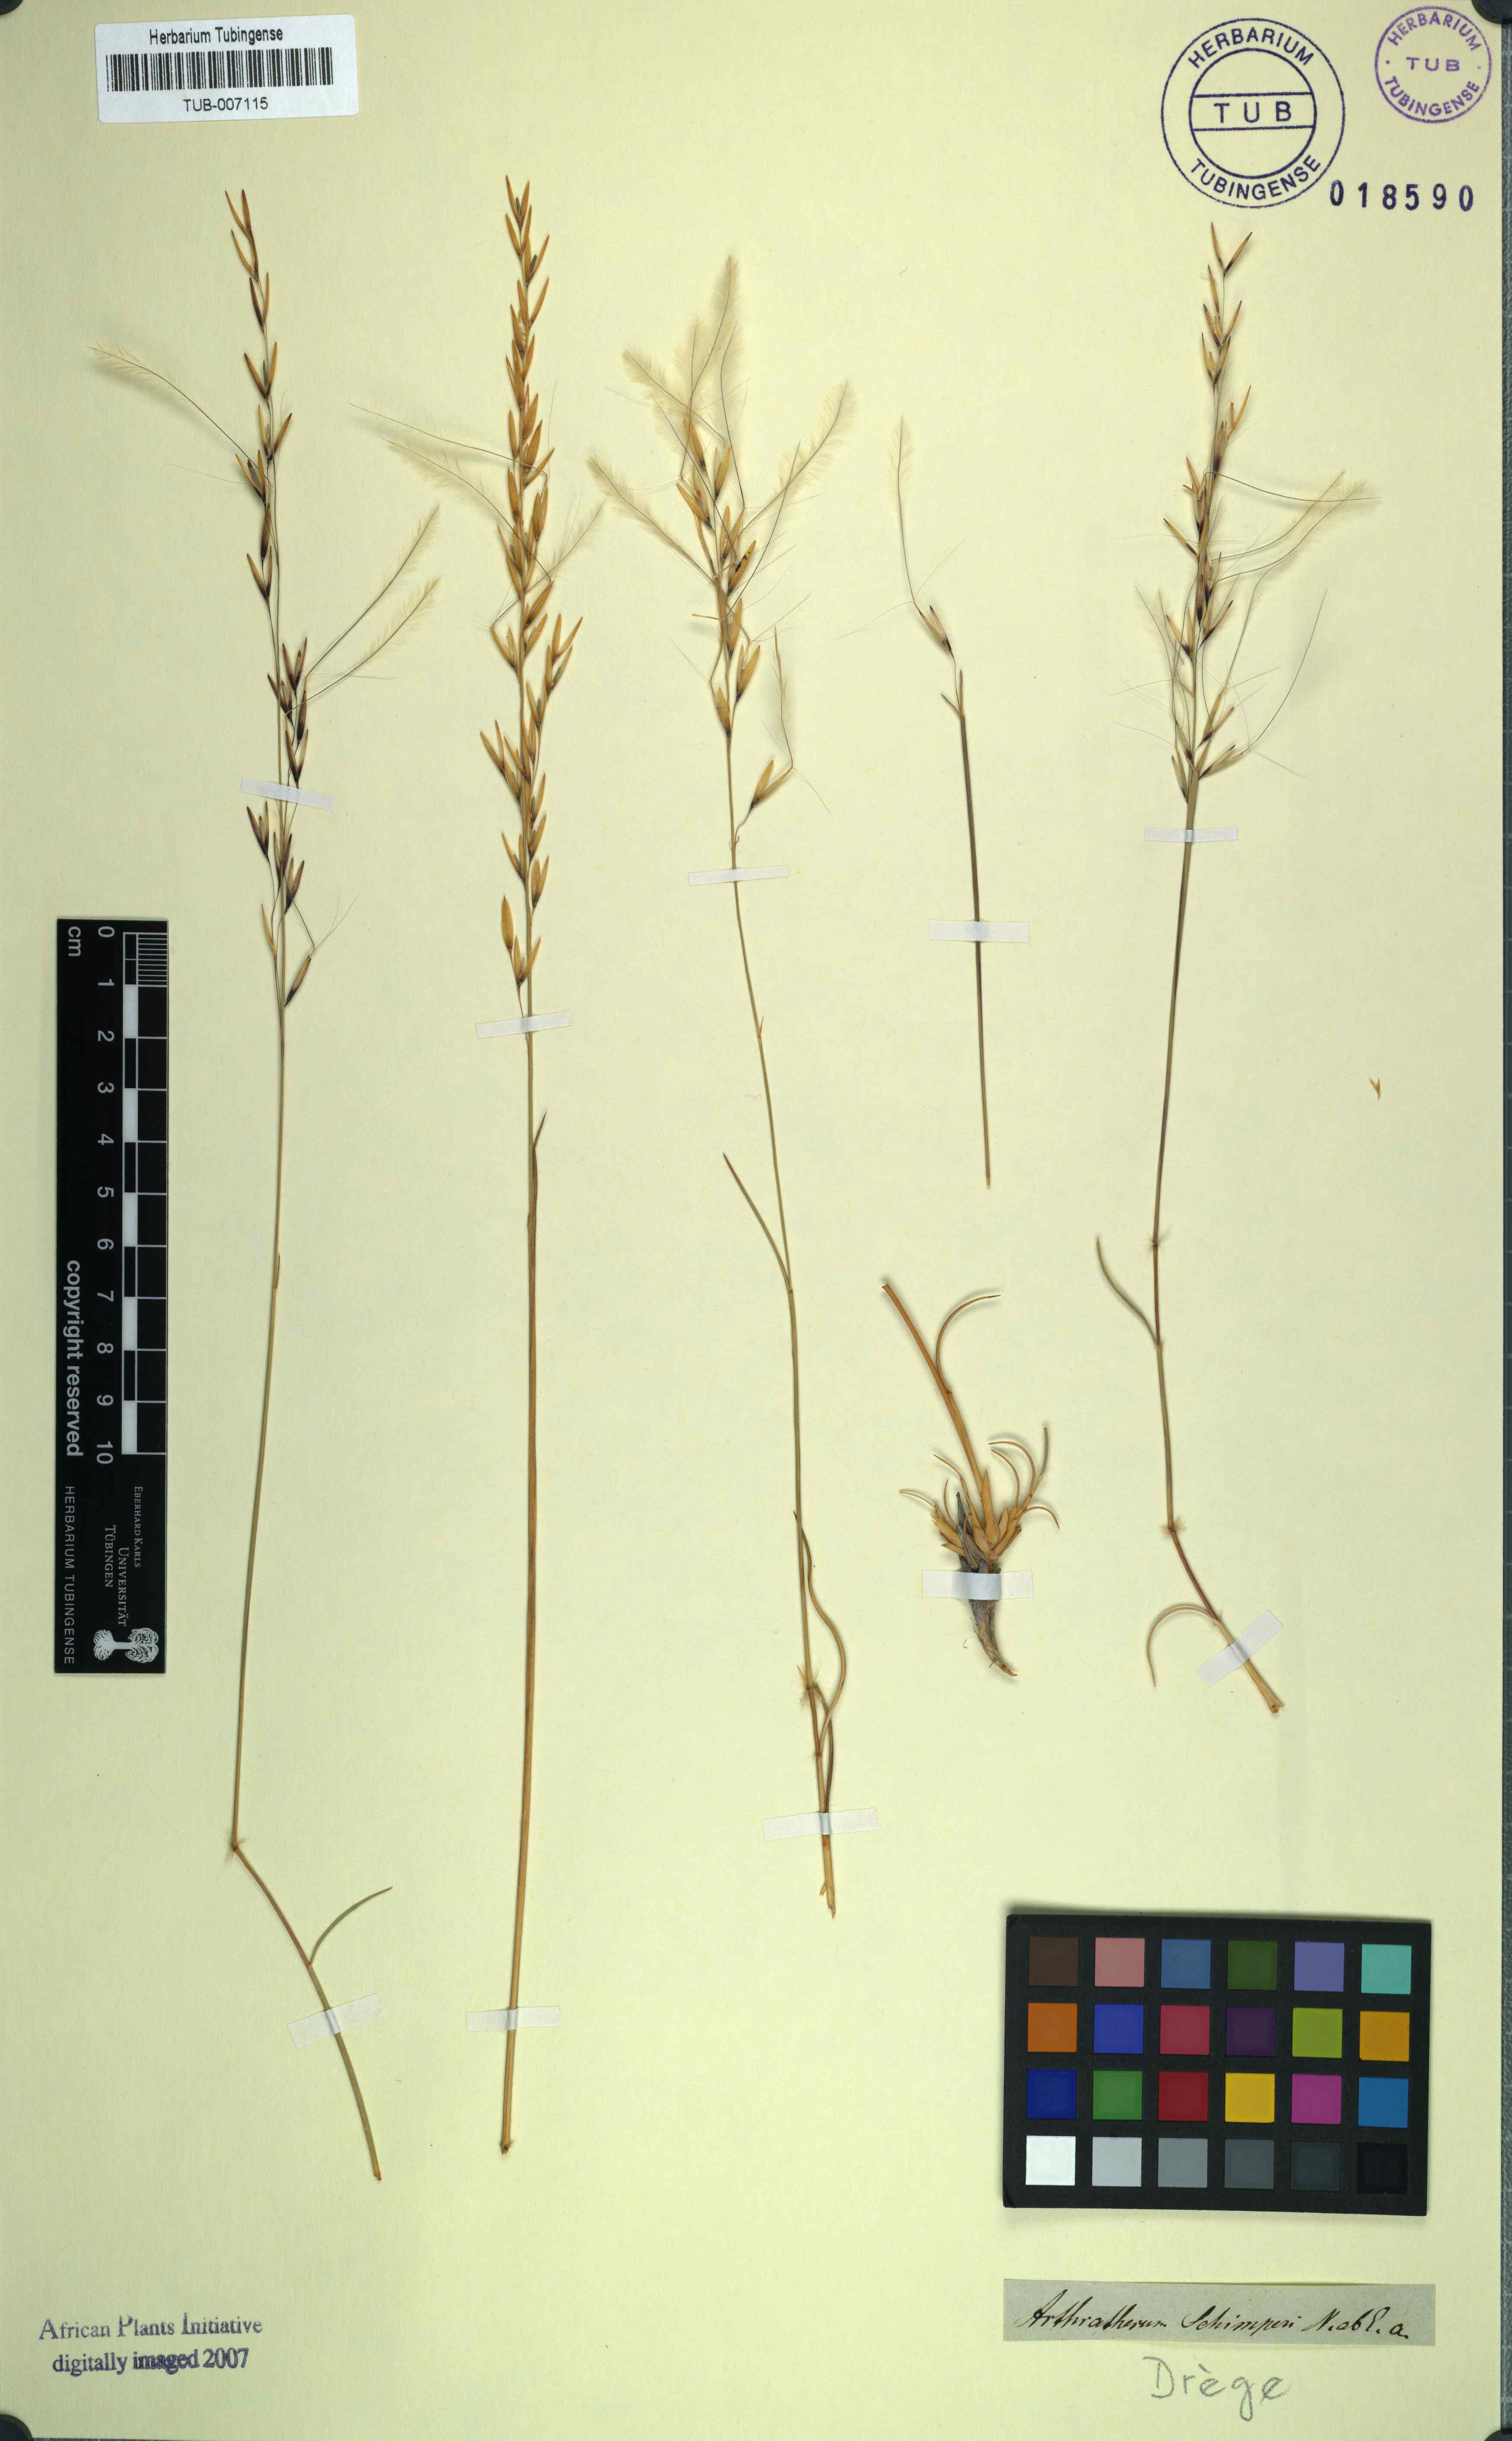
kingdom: Plantae
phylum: Tracheophyta
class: Liliopsida
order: Poales
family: Poaceae
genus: Stipagrostis
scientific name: Stipagrostis ciliata
